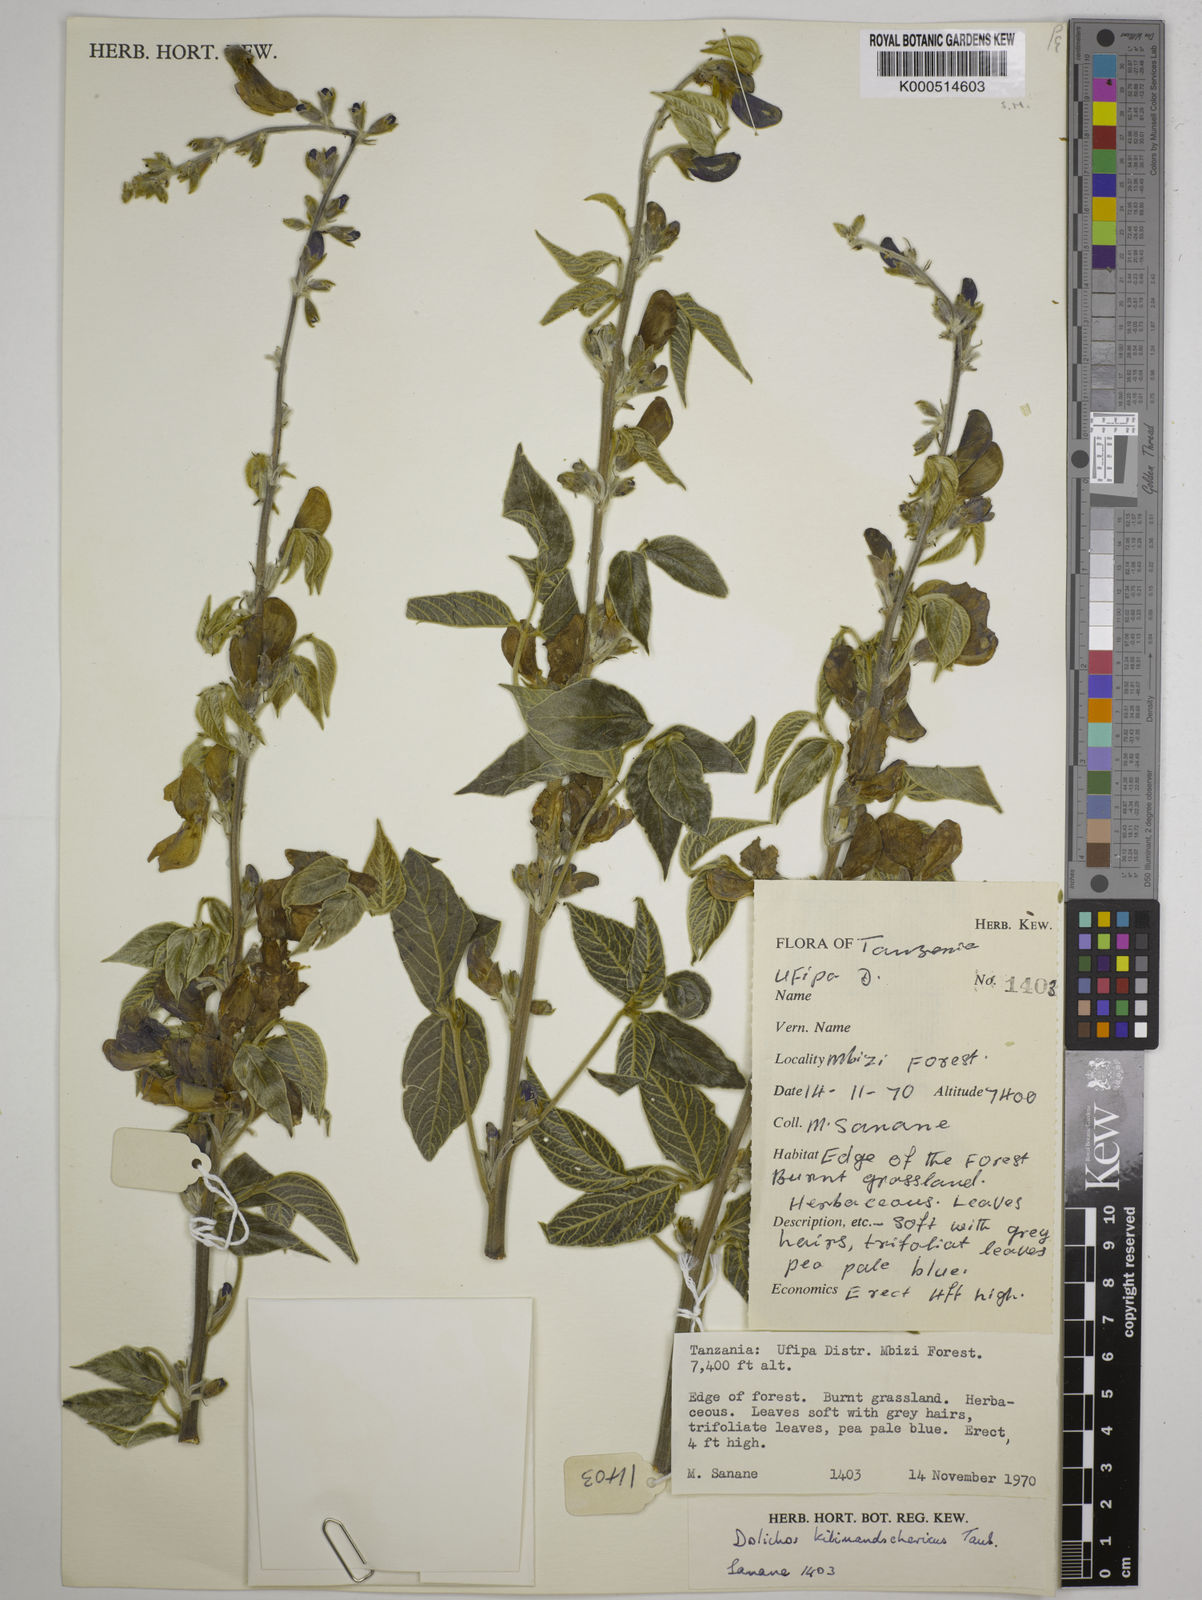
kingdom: Plantae
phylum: Tracheophyta
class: Magnoliopsida
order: Fabales
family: Fabaceae
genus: Dolichos
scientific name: Dolichos kilimandscharicus
